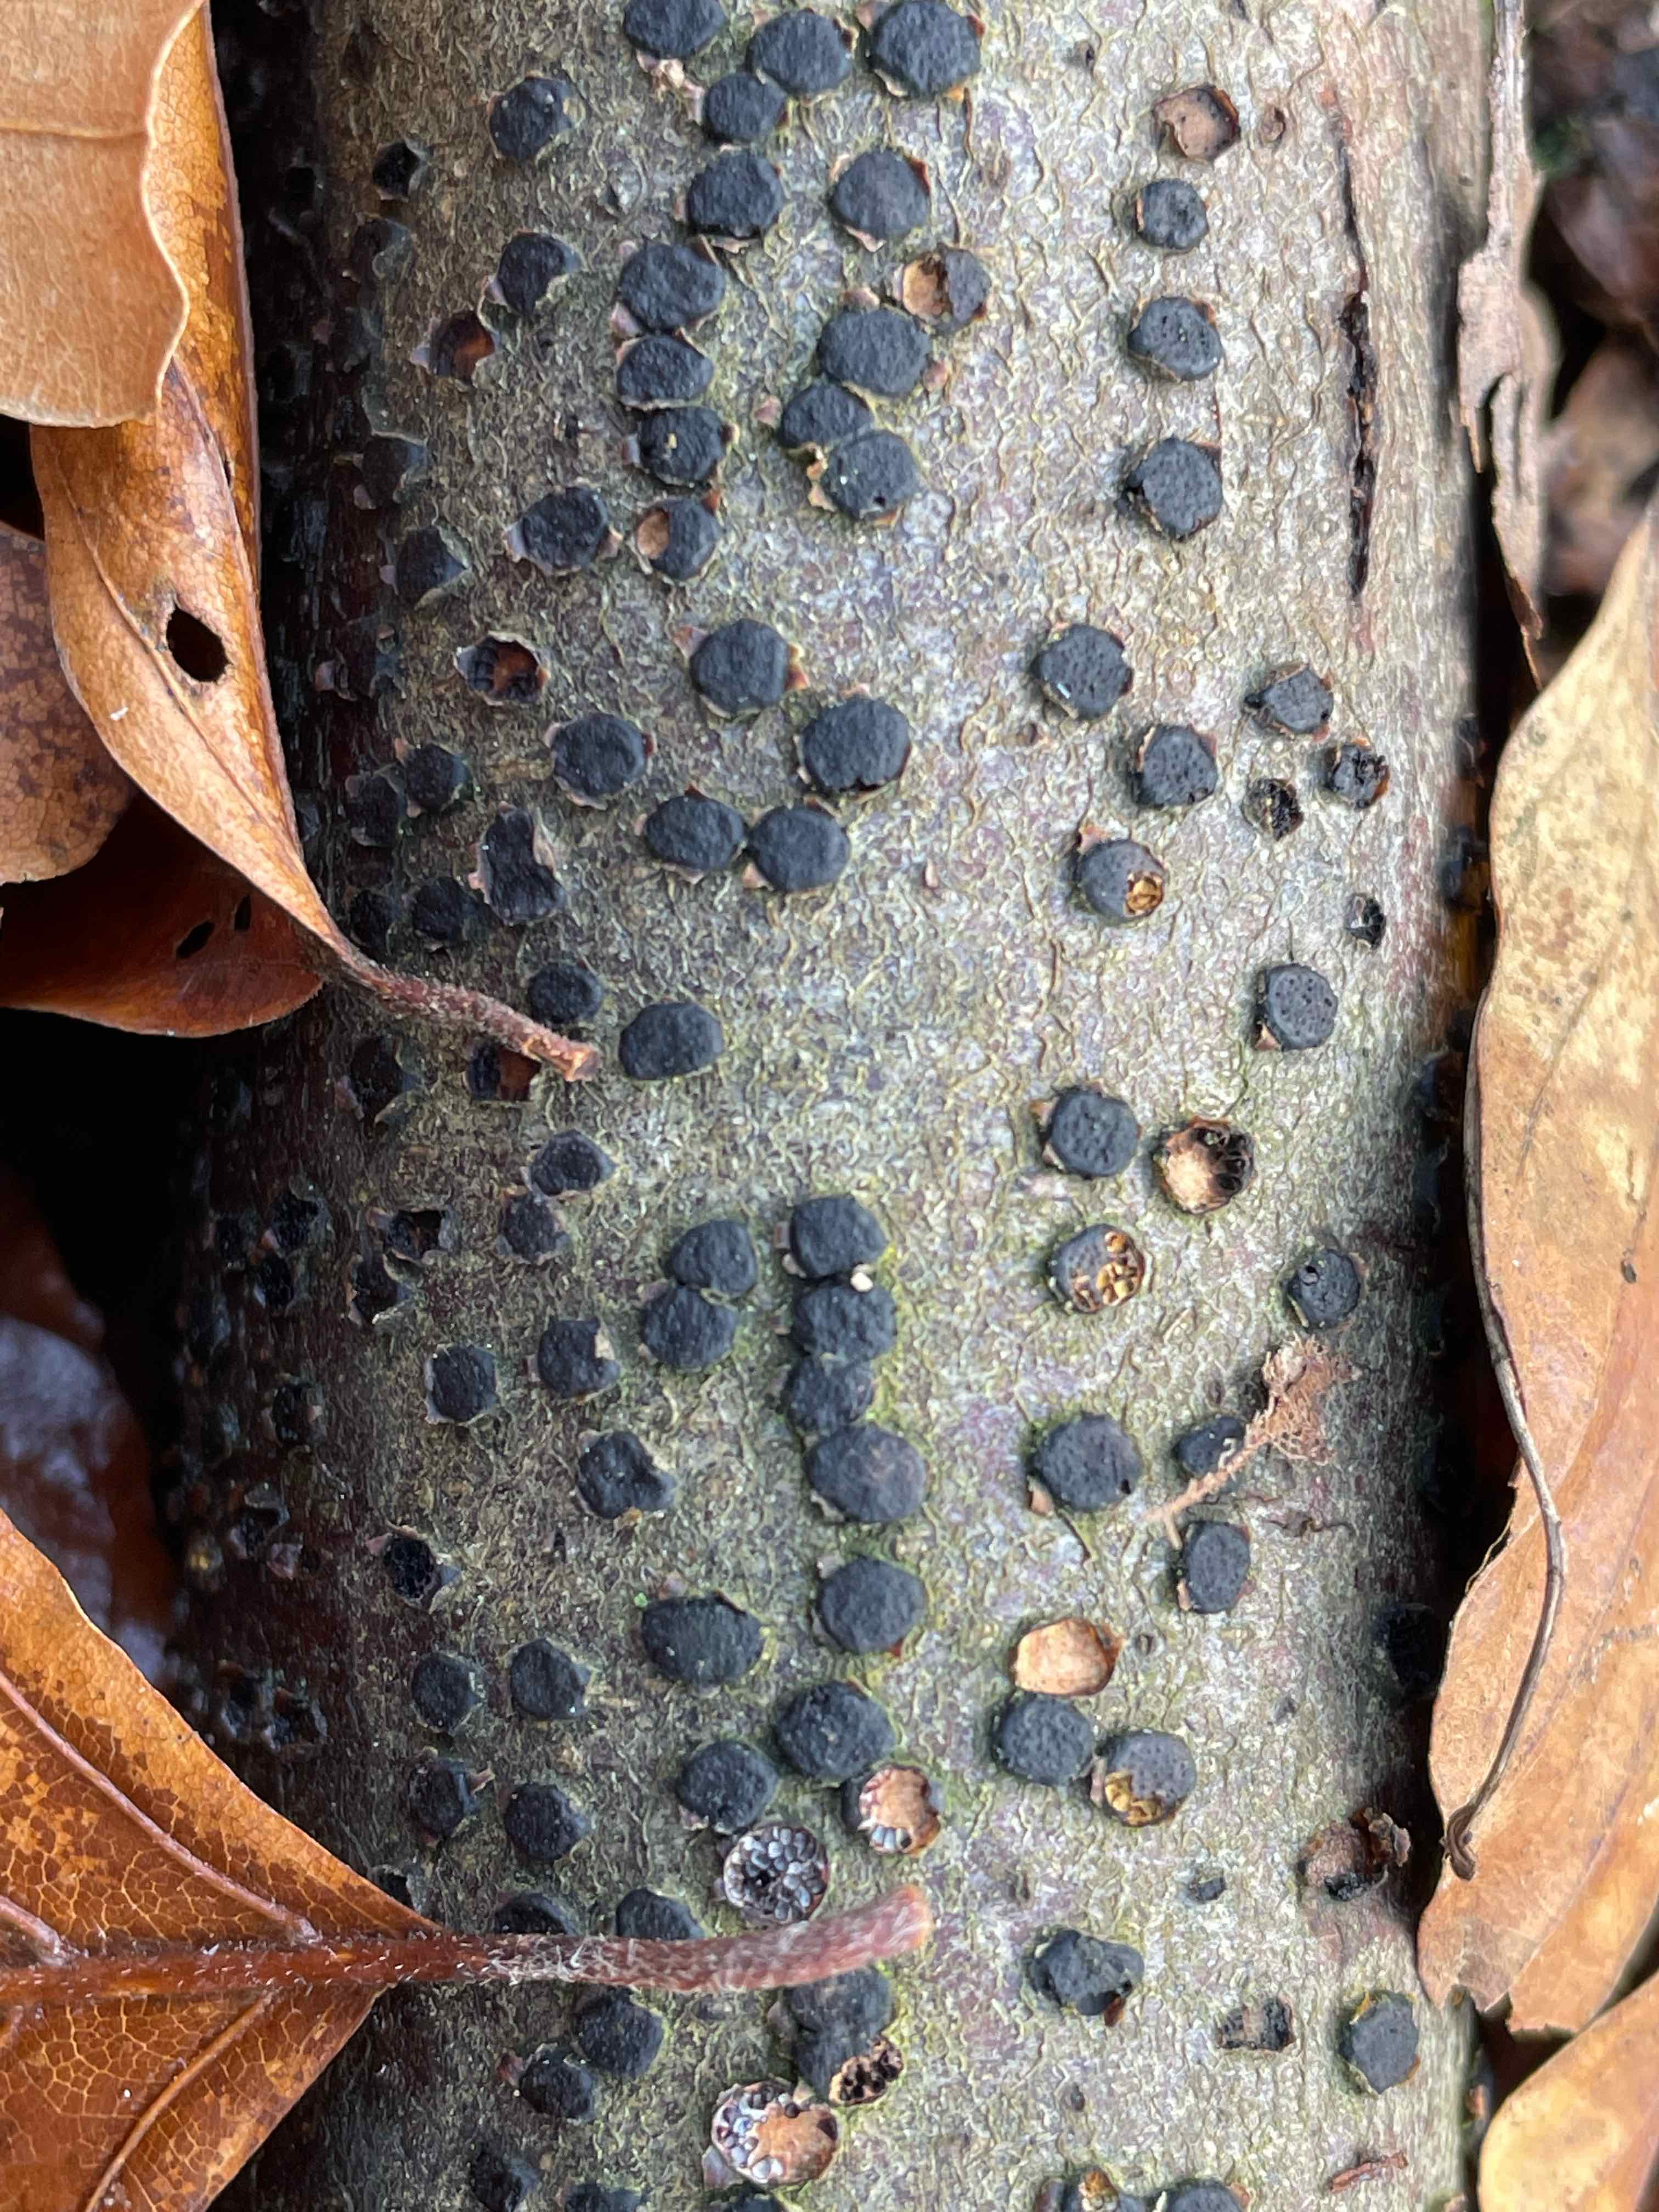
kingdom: Fungi
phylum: Ascomycota
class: Sordariomycetes
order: Xylariales
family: Diatrypaceae
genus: Diatrype
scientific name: Diatrype disciformis
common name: kant-kulskorpe
